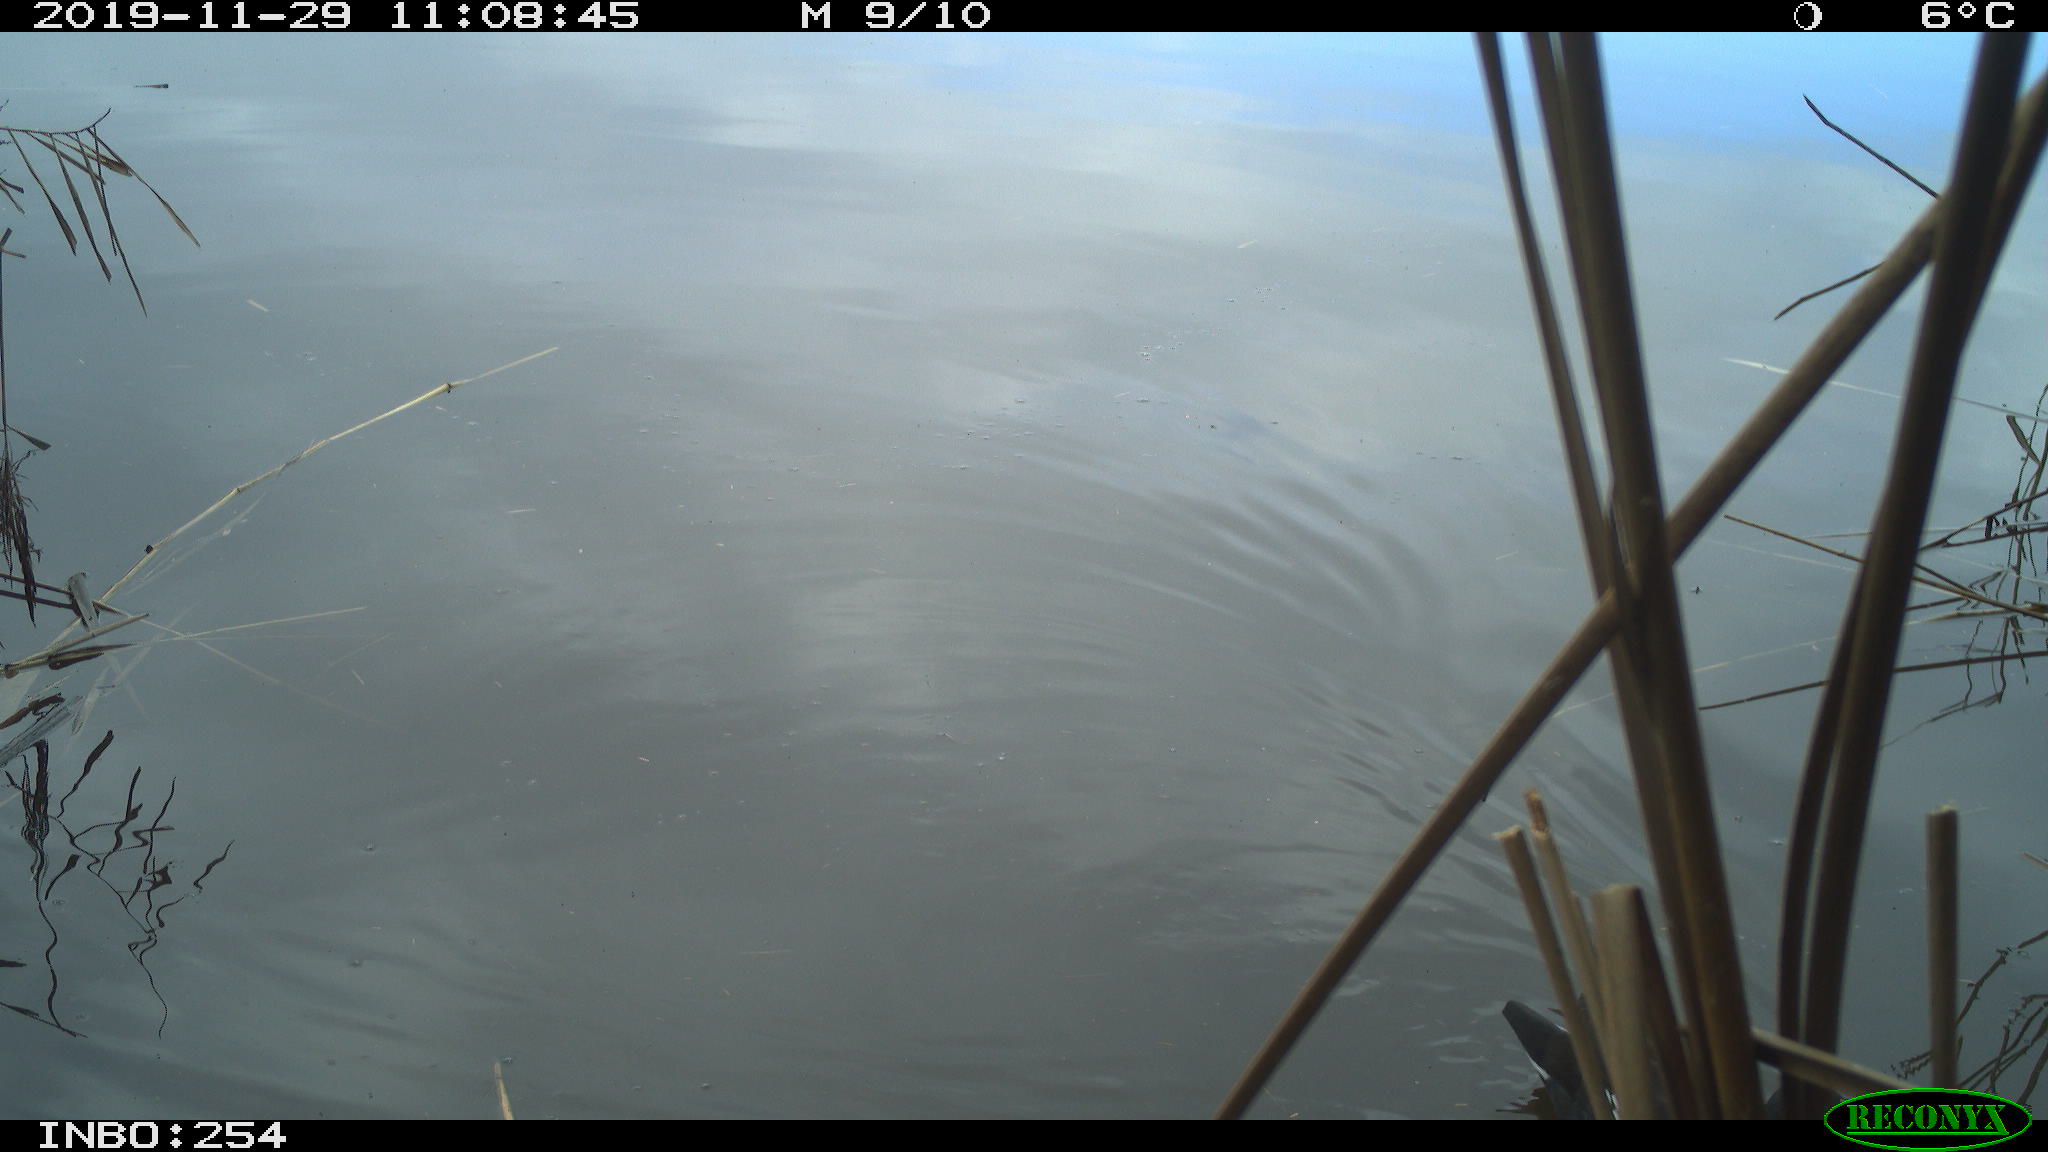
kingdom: Animalia
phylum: Chordata
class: Aves
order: Gruiformes
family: Rallidae
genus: Gallinula
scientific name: Gallinula chloropus
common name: Common moorhen
